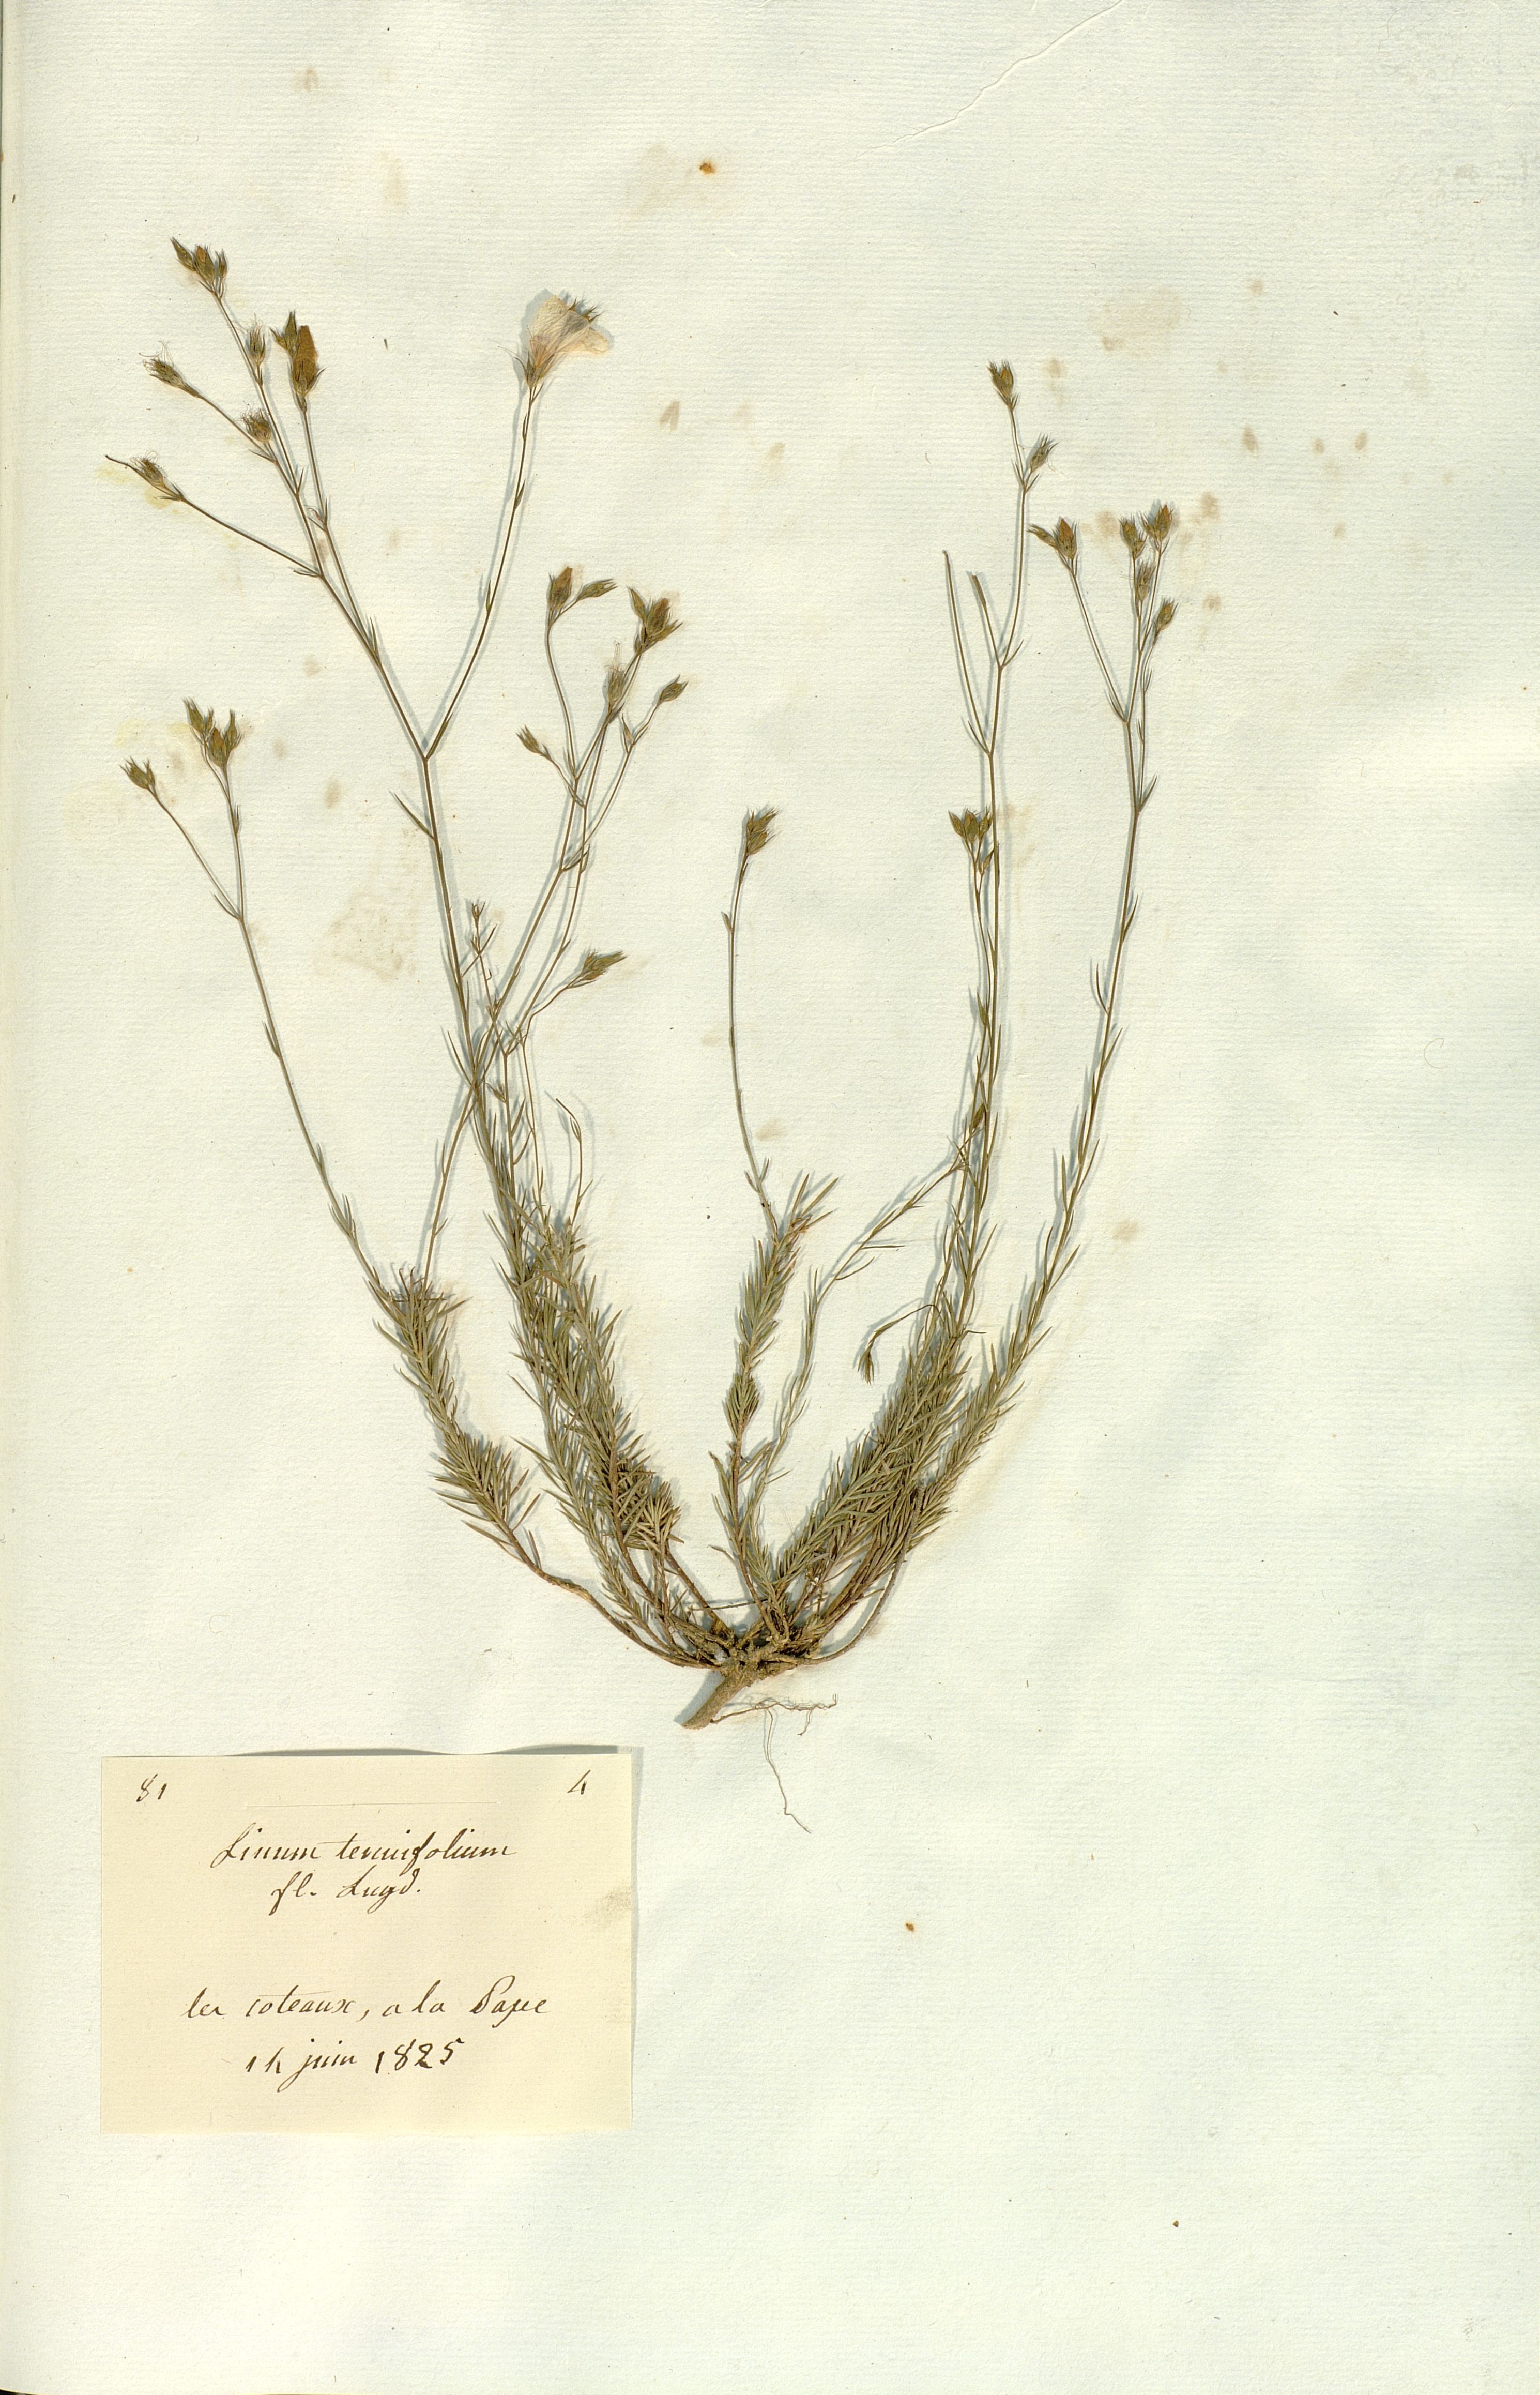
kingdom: Plantae
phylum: Tracheophyta
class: Magnoliopsida
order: Malpighiales
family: Linaceae
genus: Linum
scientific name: Linum tenuifolium
